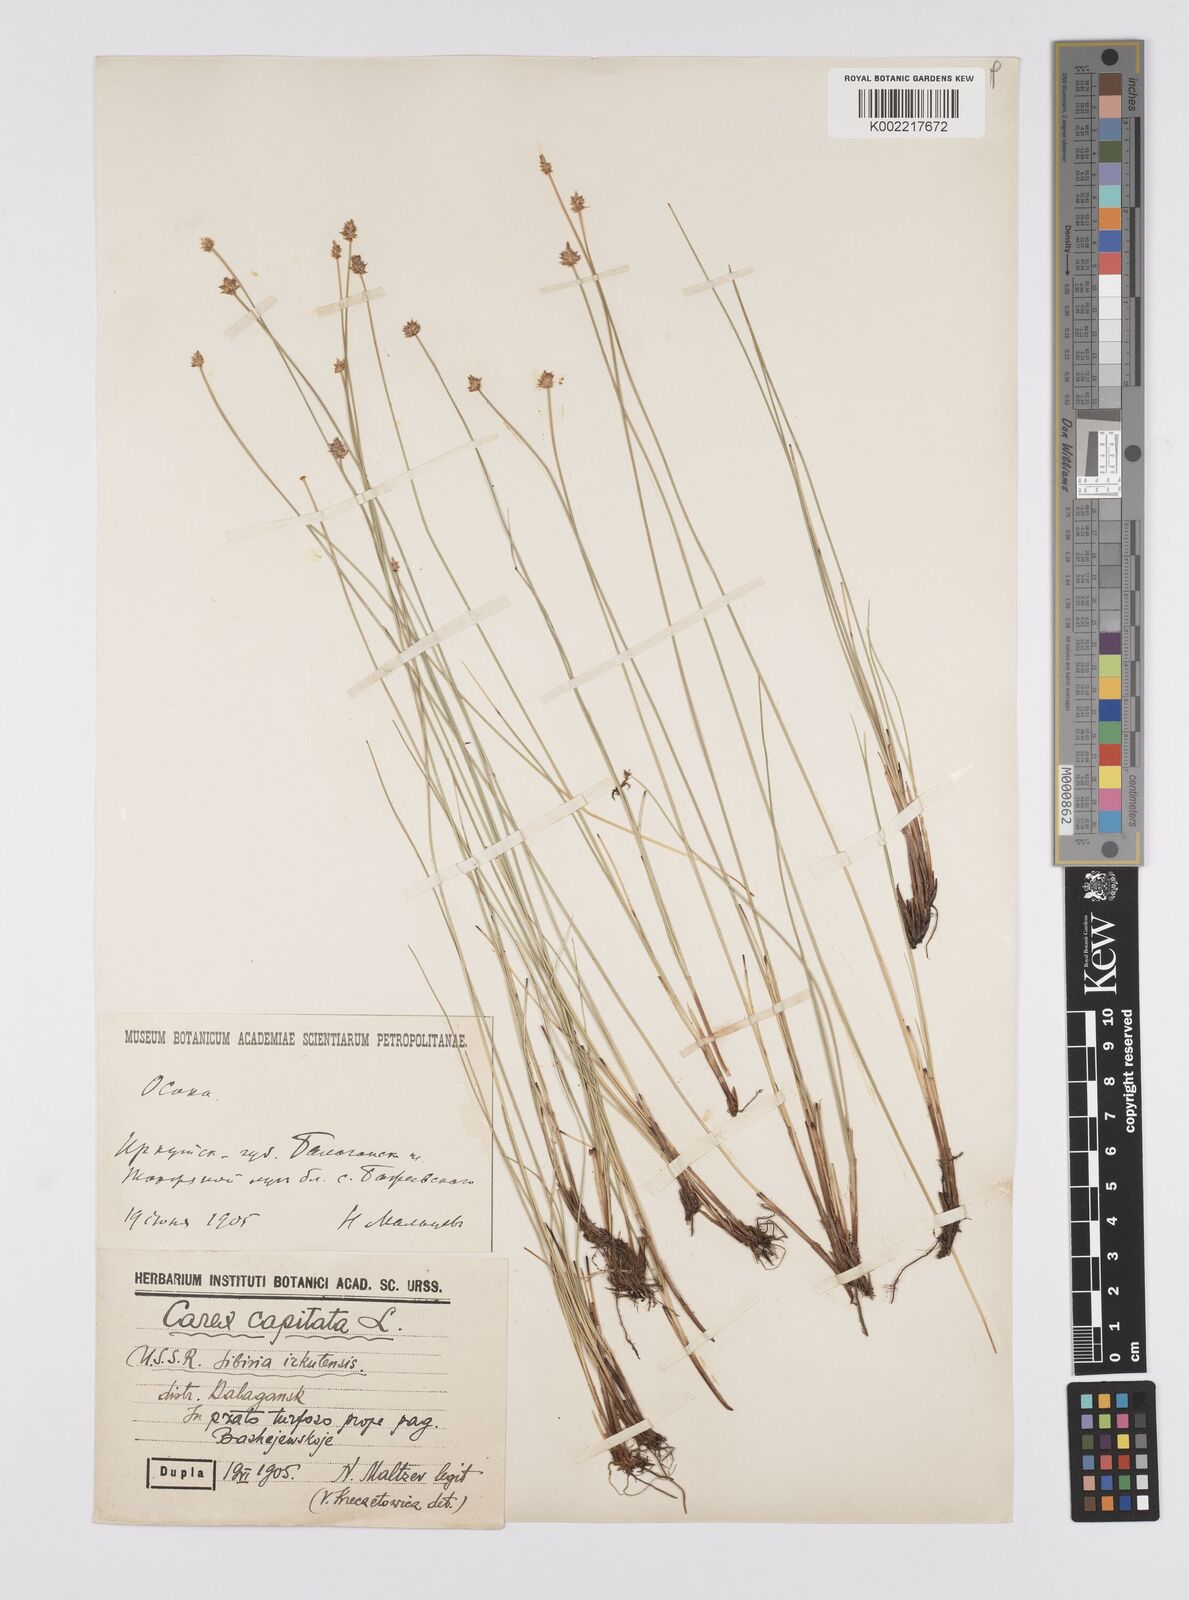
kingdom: Plantae
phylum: Tracheophyta
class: Liliopsida
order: Poales
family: Cyperaceae
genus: Carex
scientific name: Carex capitata
